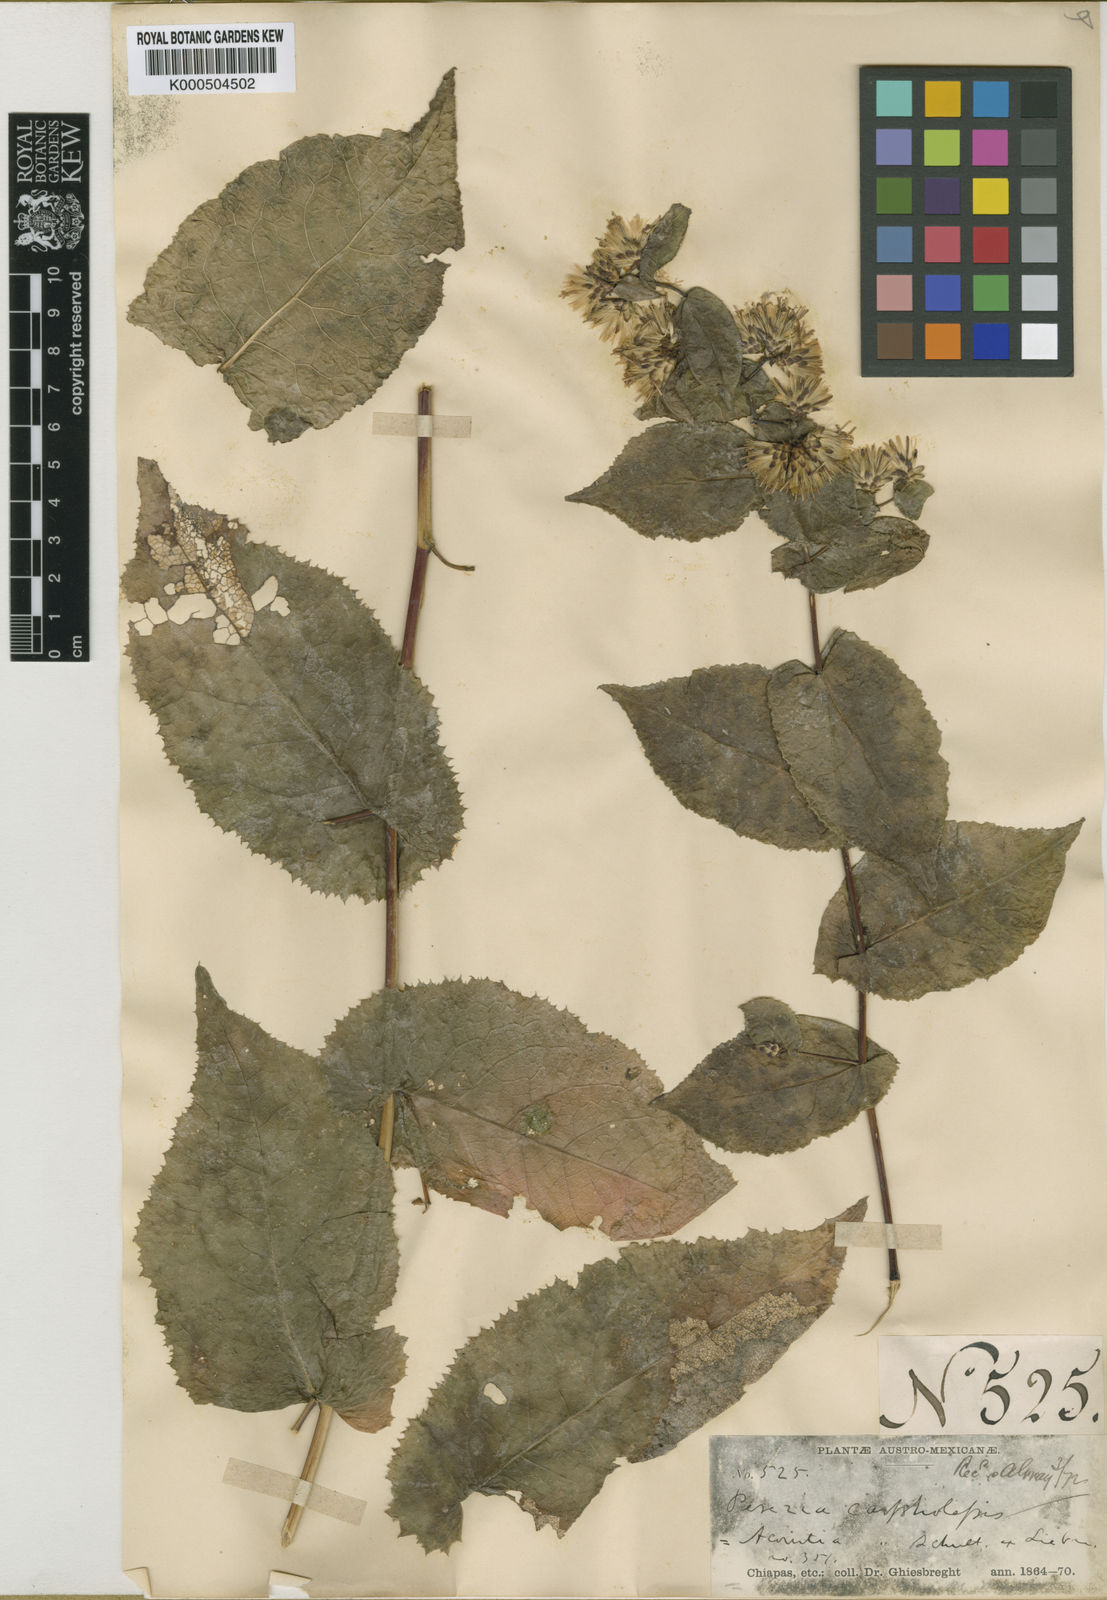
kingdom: Plantae
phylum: Tracheophyta
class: Magnoliopsida
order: Asterales
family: Asteraceae
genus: Acourtia
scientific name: Acourtia carpholepis
